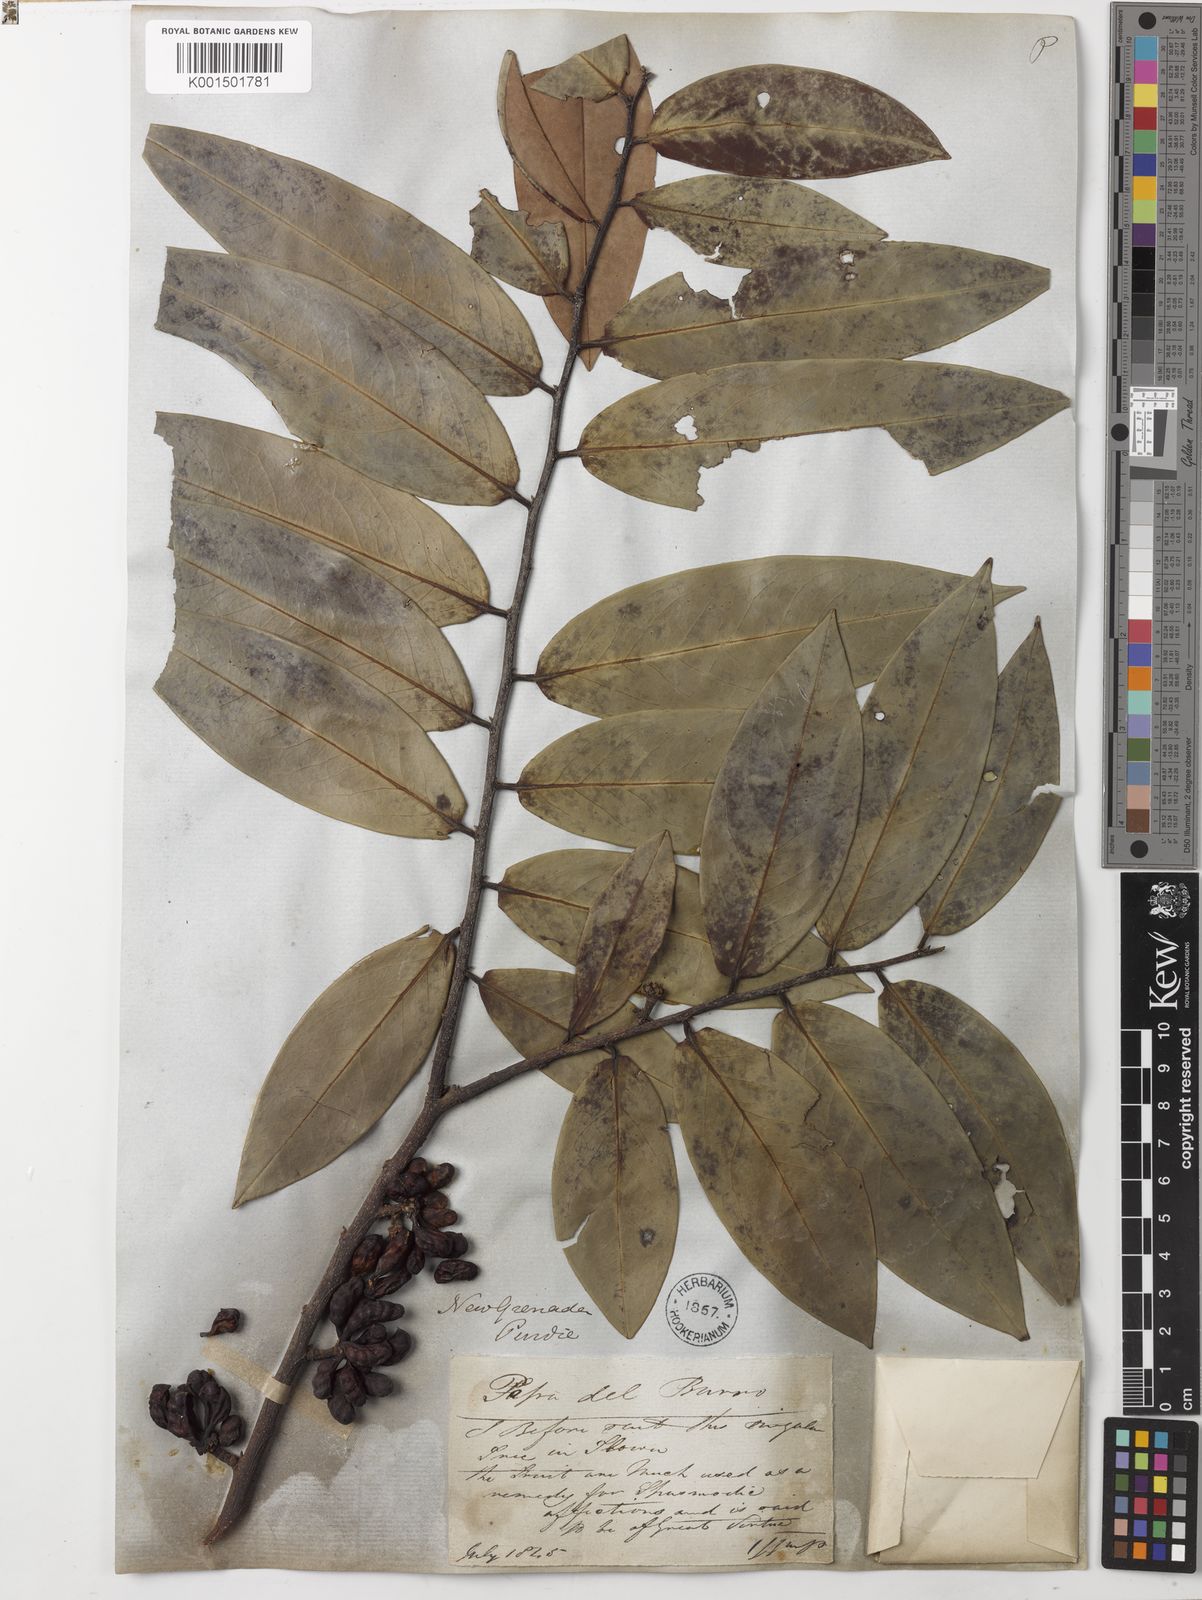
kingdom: Plantae
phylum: Tracheophyta
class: Magnoliopsida
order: Magnoliales
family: Annonaceae
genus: Xylopia
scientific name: Xylopia aromatica
